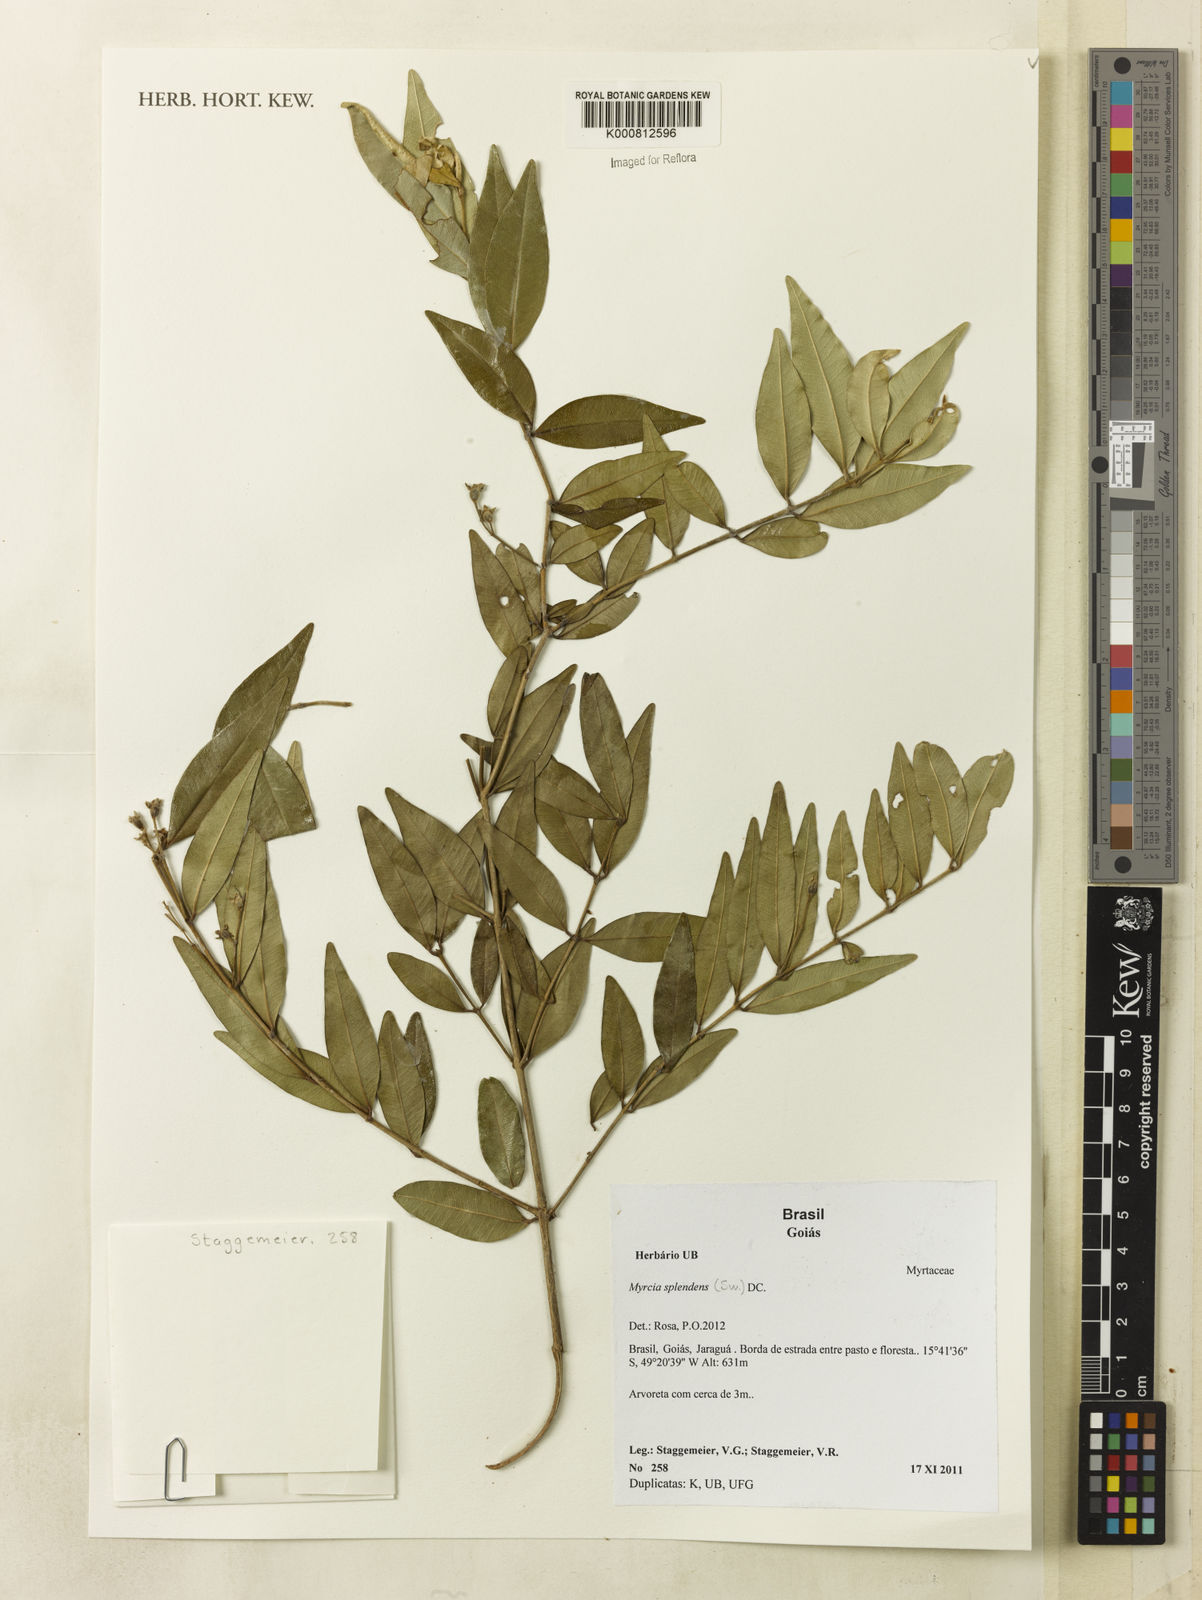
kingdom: Plantae
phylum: Tracheophyta
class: Magnoliopsida
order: Myrtales
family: Myrtaceae
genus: Myrcia
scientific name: Myrcia splendens
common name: Surinam cherry
